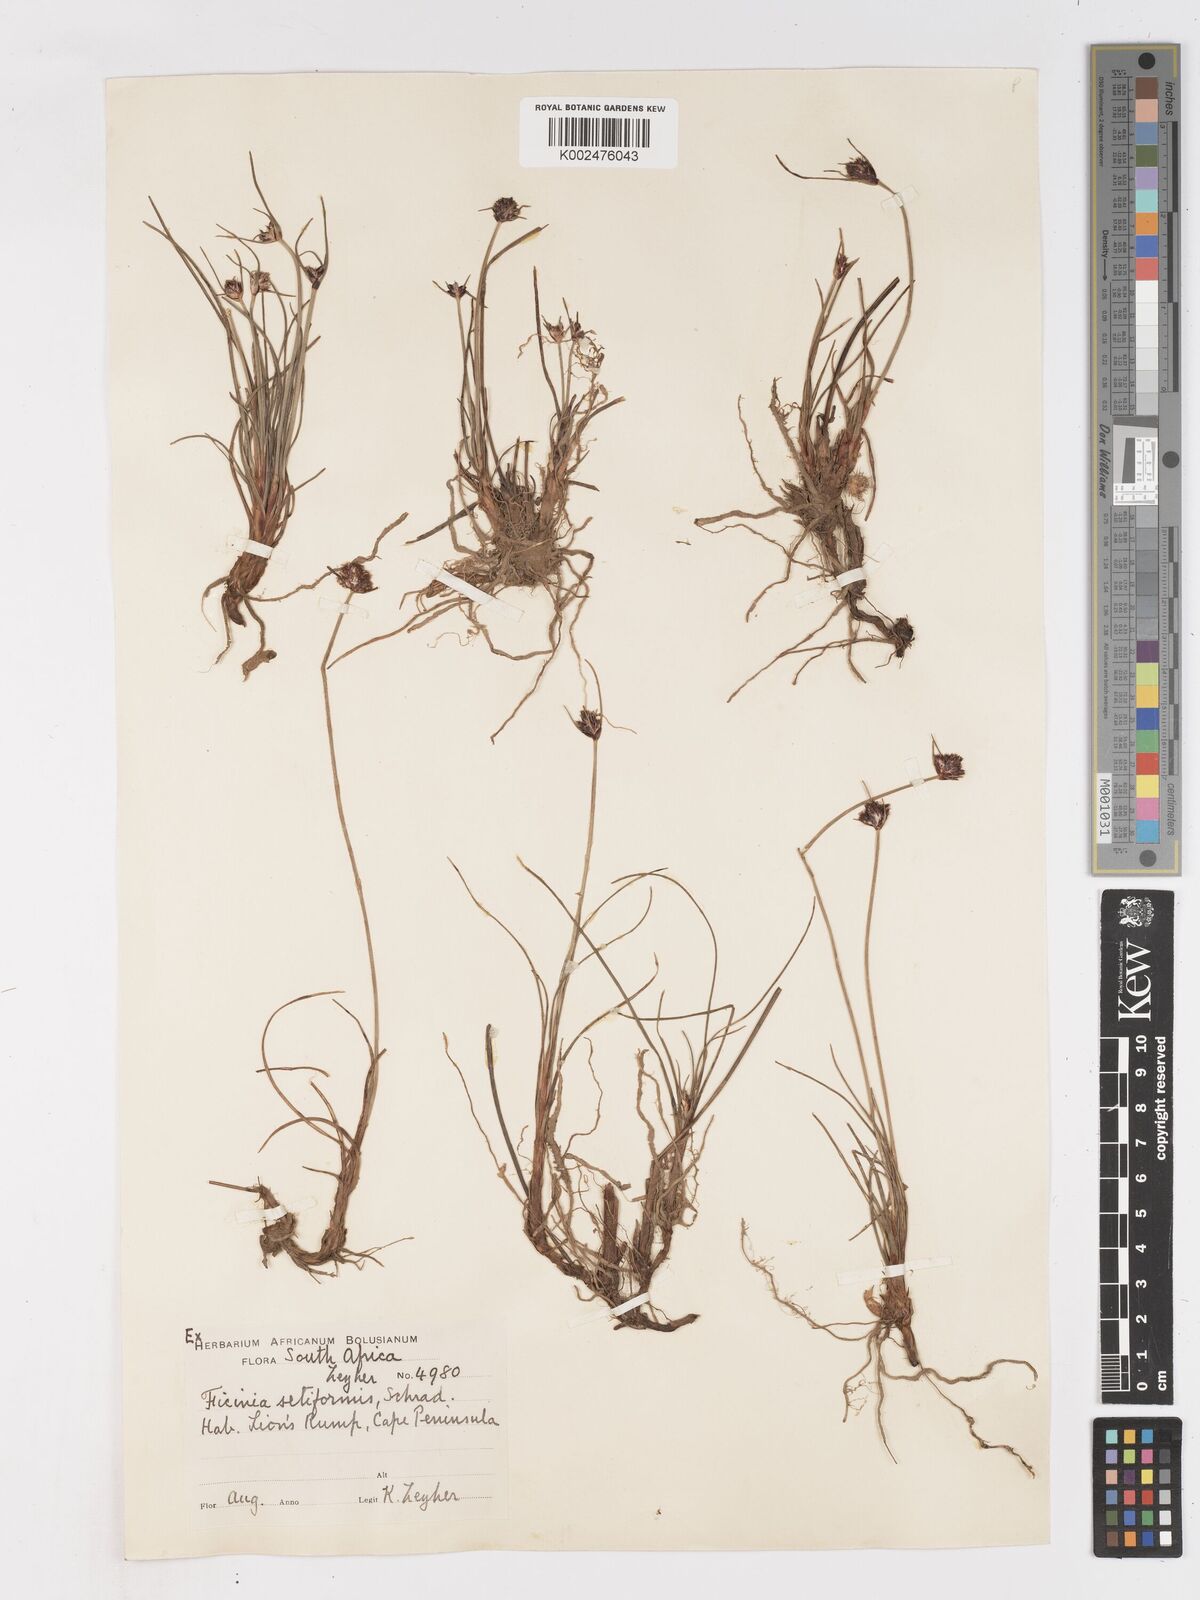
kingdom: Plantae
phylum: Tracheophyta
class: Liliopsida
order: Poales
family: Cyperaceae
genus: Ficinia
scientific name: Ficinia indica
